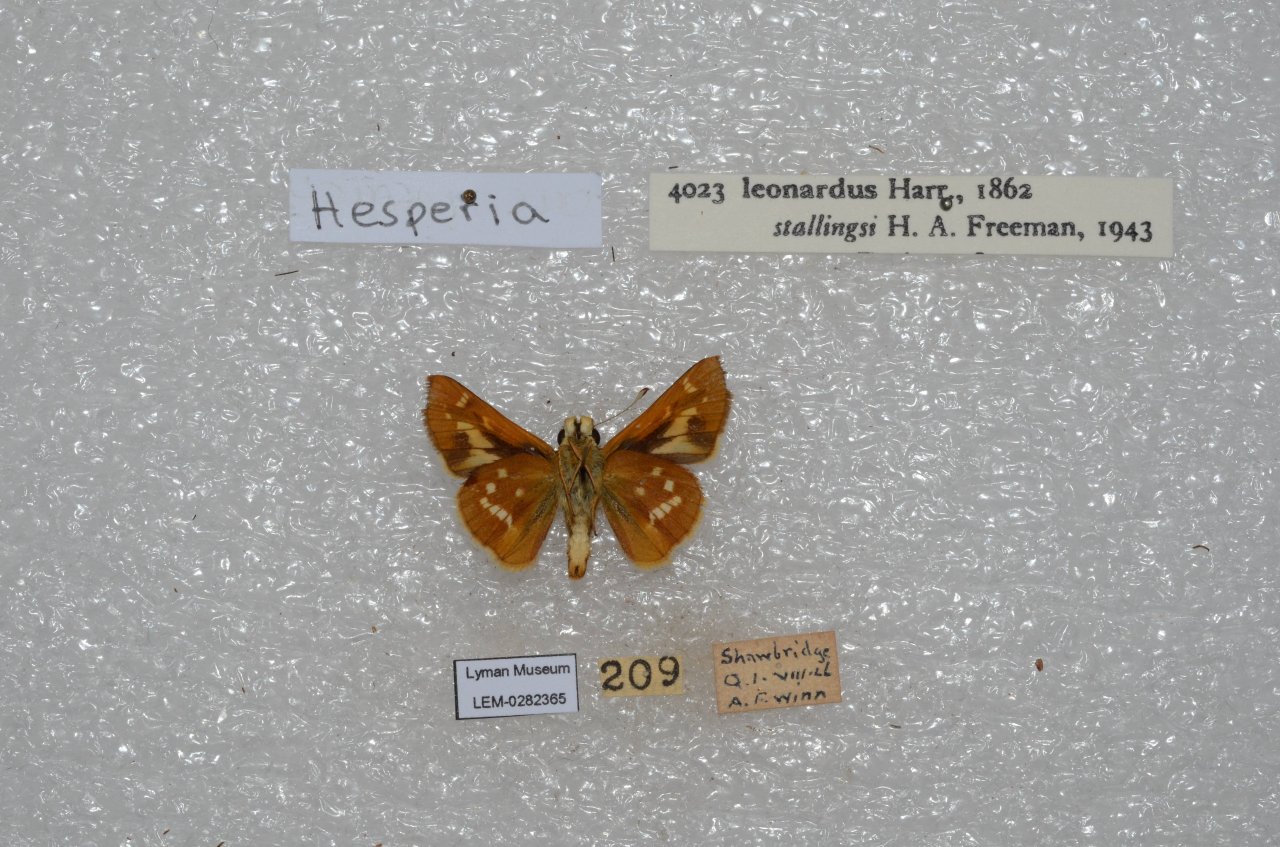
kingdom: Animalia
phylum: Arthropoda
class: Insecta
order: Lepidoptera
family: Hesperiidae
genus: Hesperia
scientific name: Hesperia leonardus
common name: Leonard's Skipper
